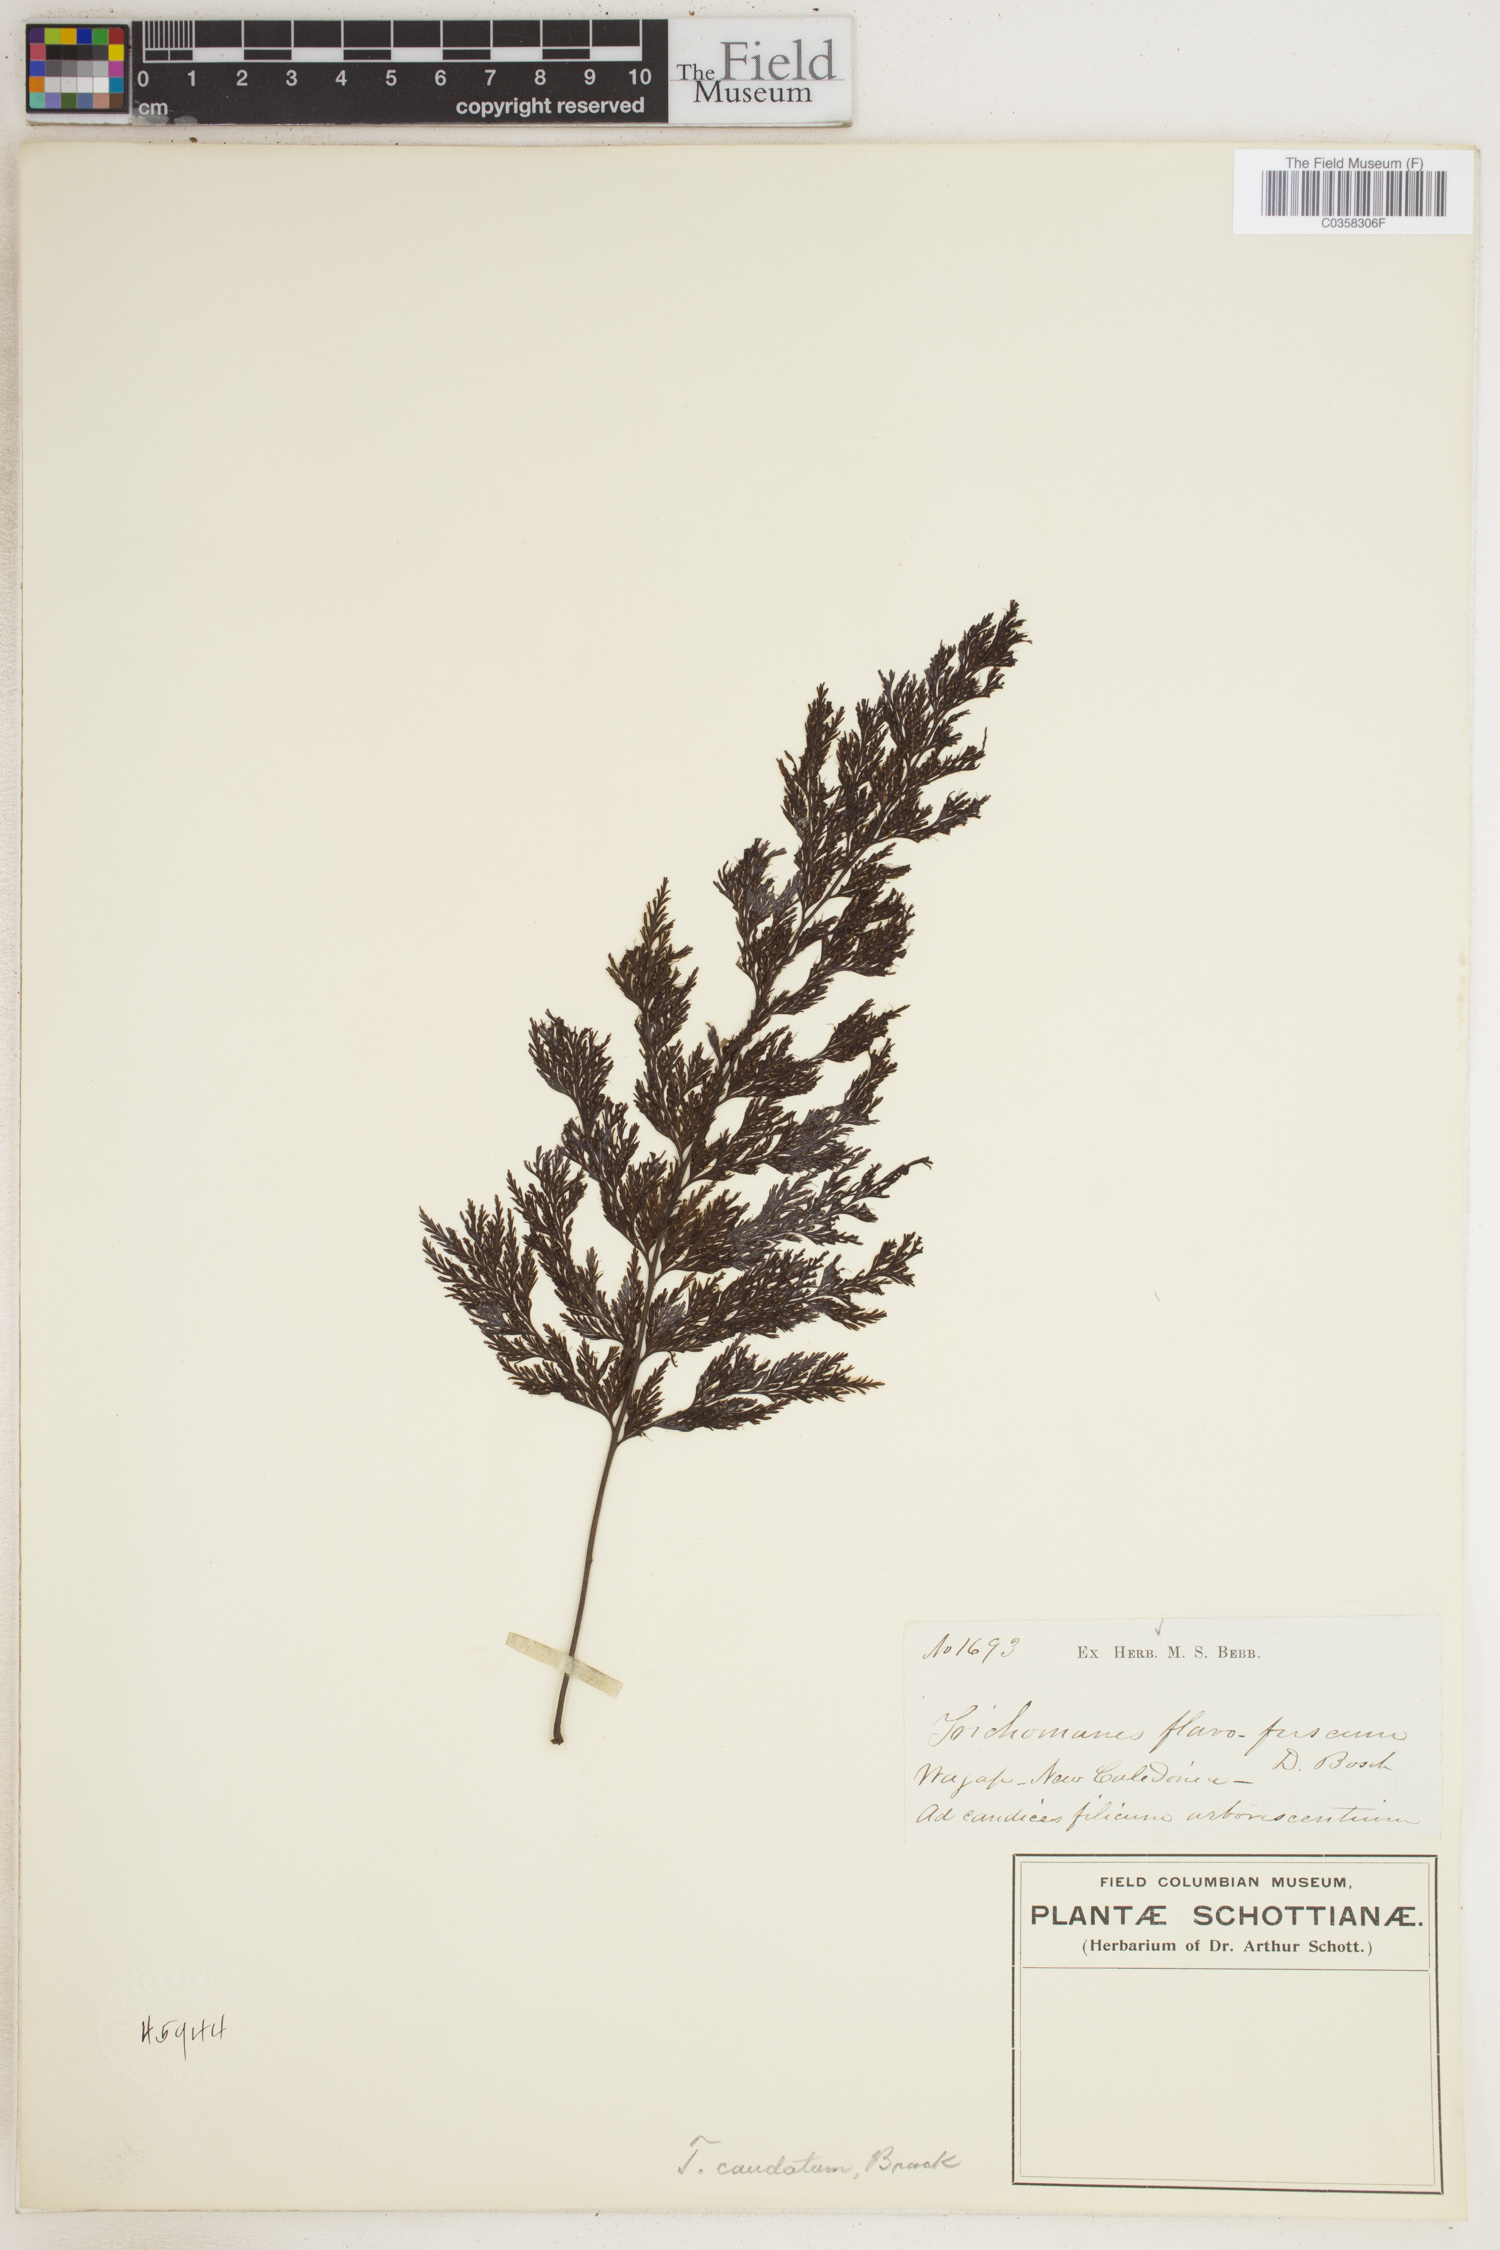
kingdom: Plantae
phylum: Tracheophyta
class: Polypodiopsida
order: Hymenophyllales
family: Hymenophyllaceae
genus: Abrodictyum
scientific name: Abrodictyum caudatum
